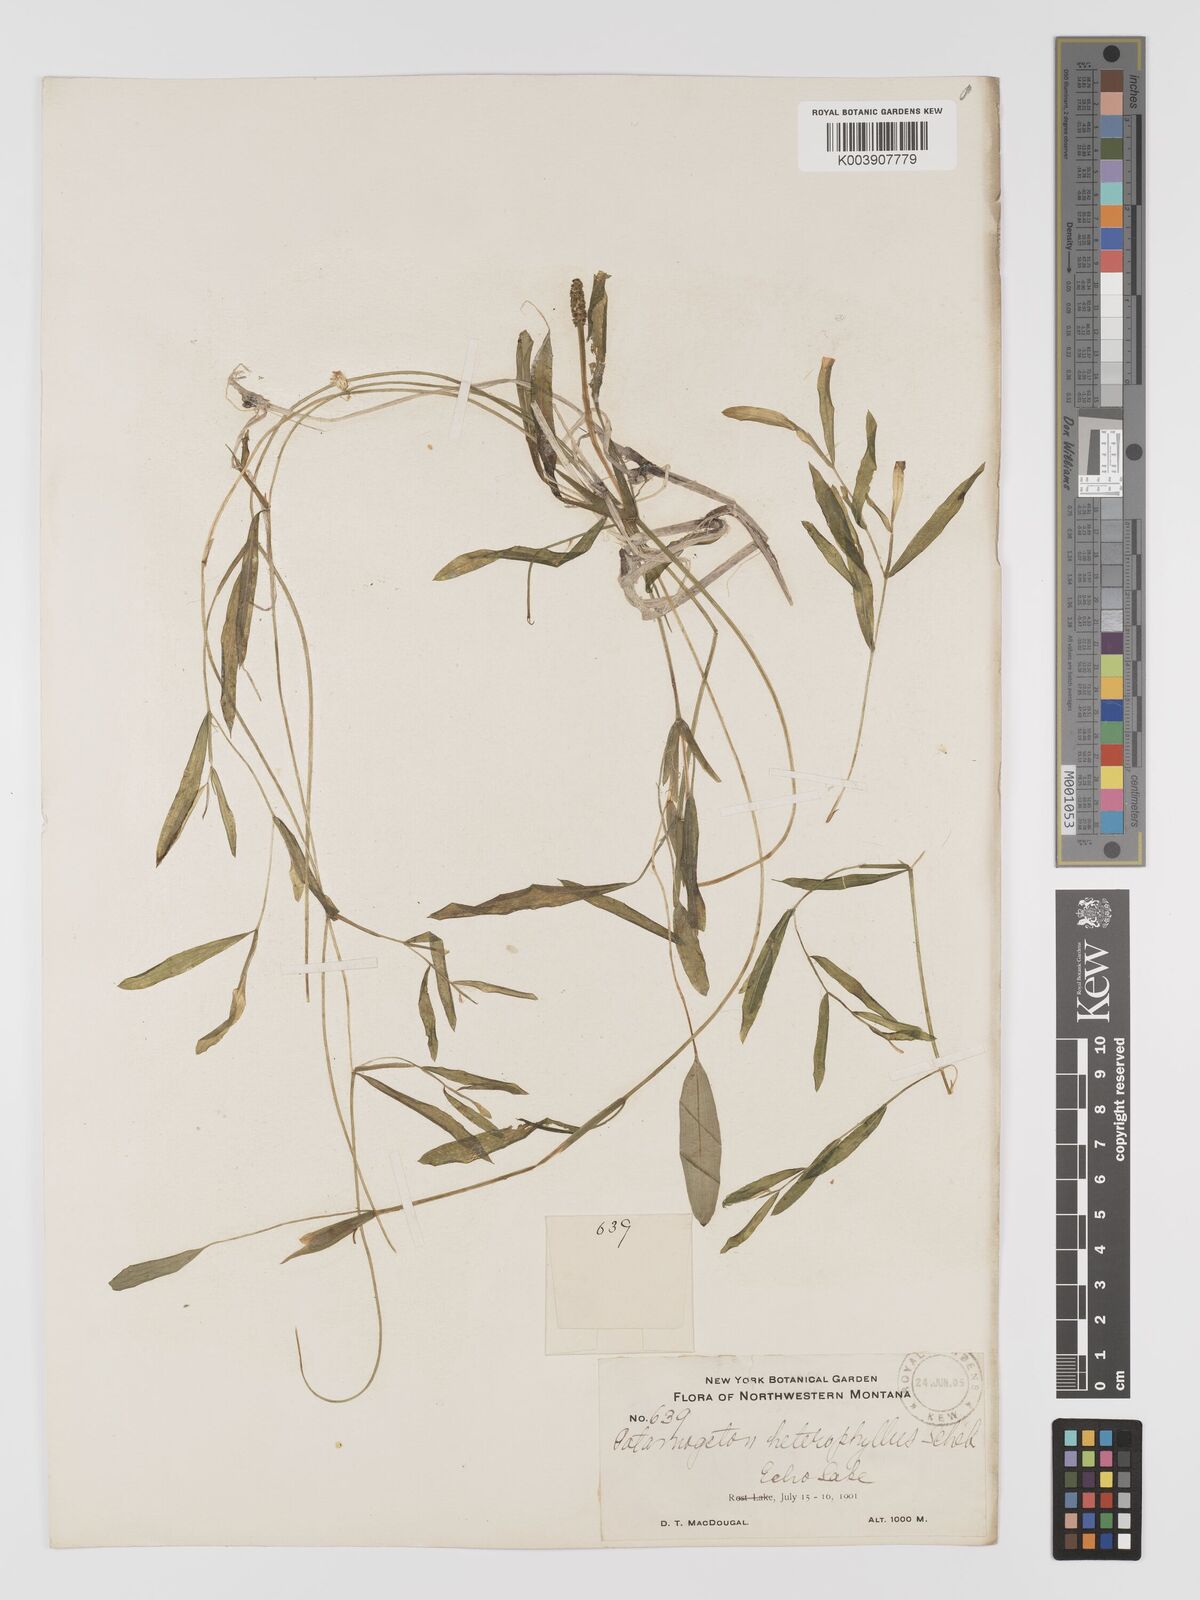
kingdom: Plantae
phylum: Tracheophyta
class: Liliopsida
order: Alismatales
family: Potamogetonaceae
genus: Potamogeton
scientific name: Potamogeton gramineus
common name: Various-leaved pondweed
